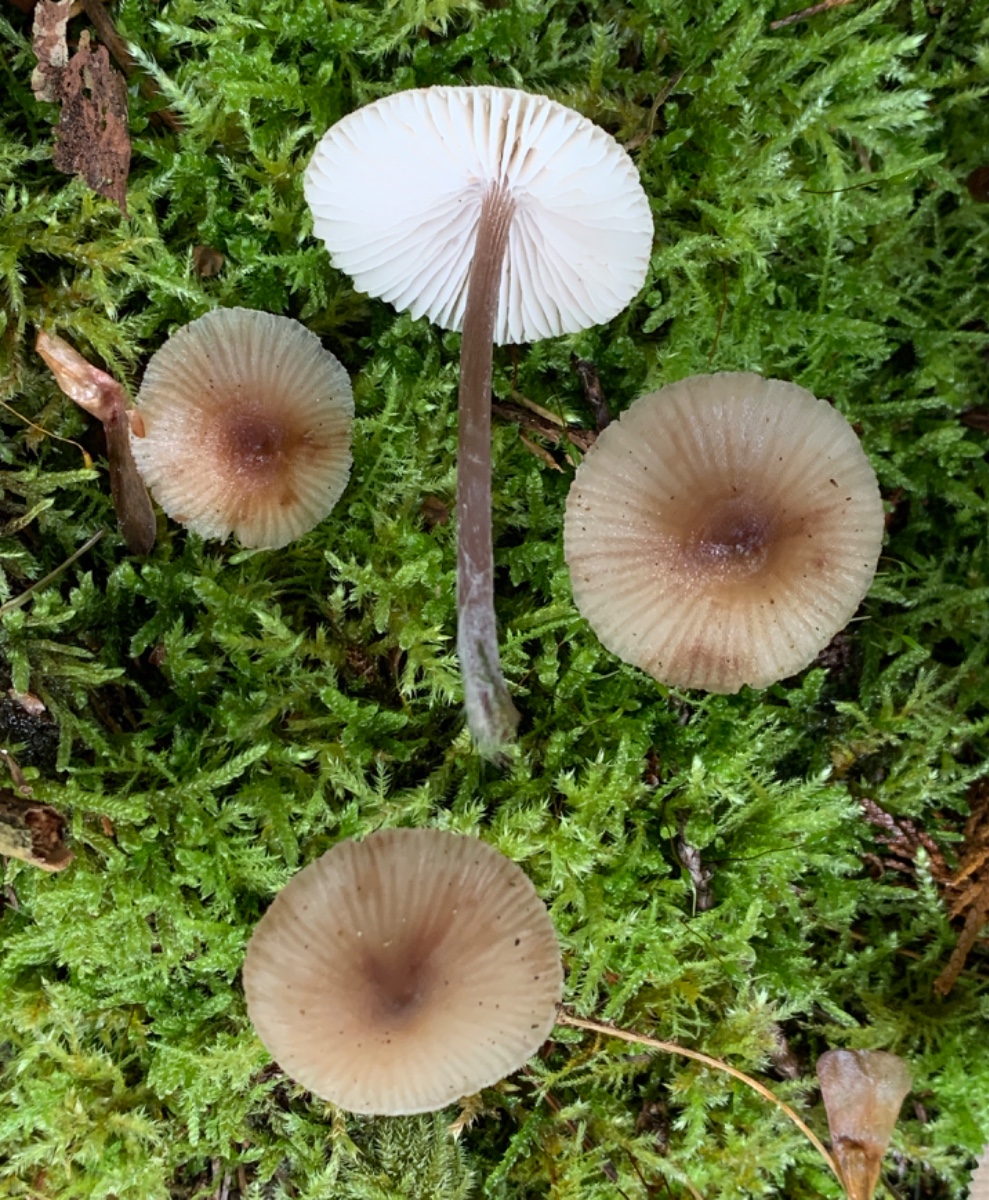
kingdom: Fungi
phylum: Basidiomycota
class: Agaricomycetes
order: Agaricales
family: Mycenaceae
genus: Mycena
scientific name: Mycena zephirus
